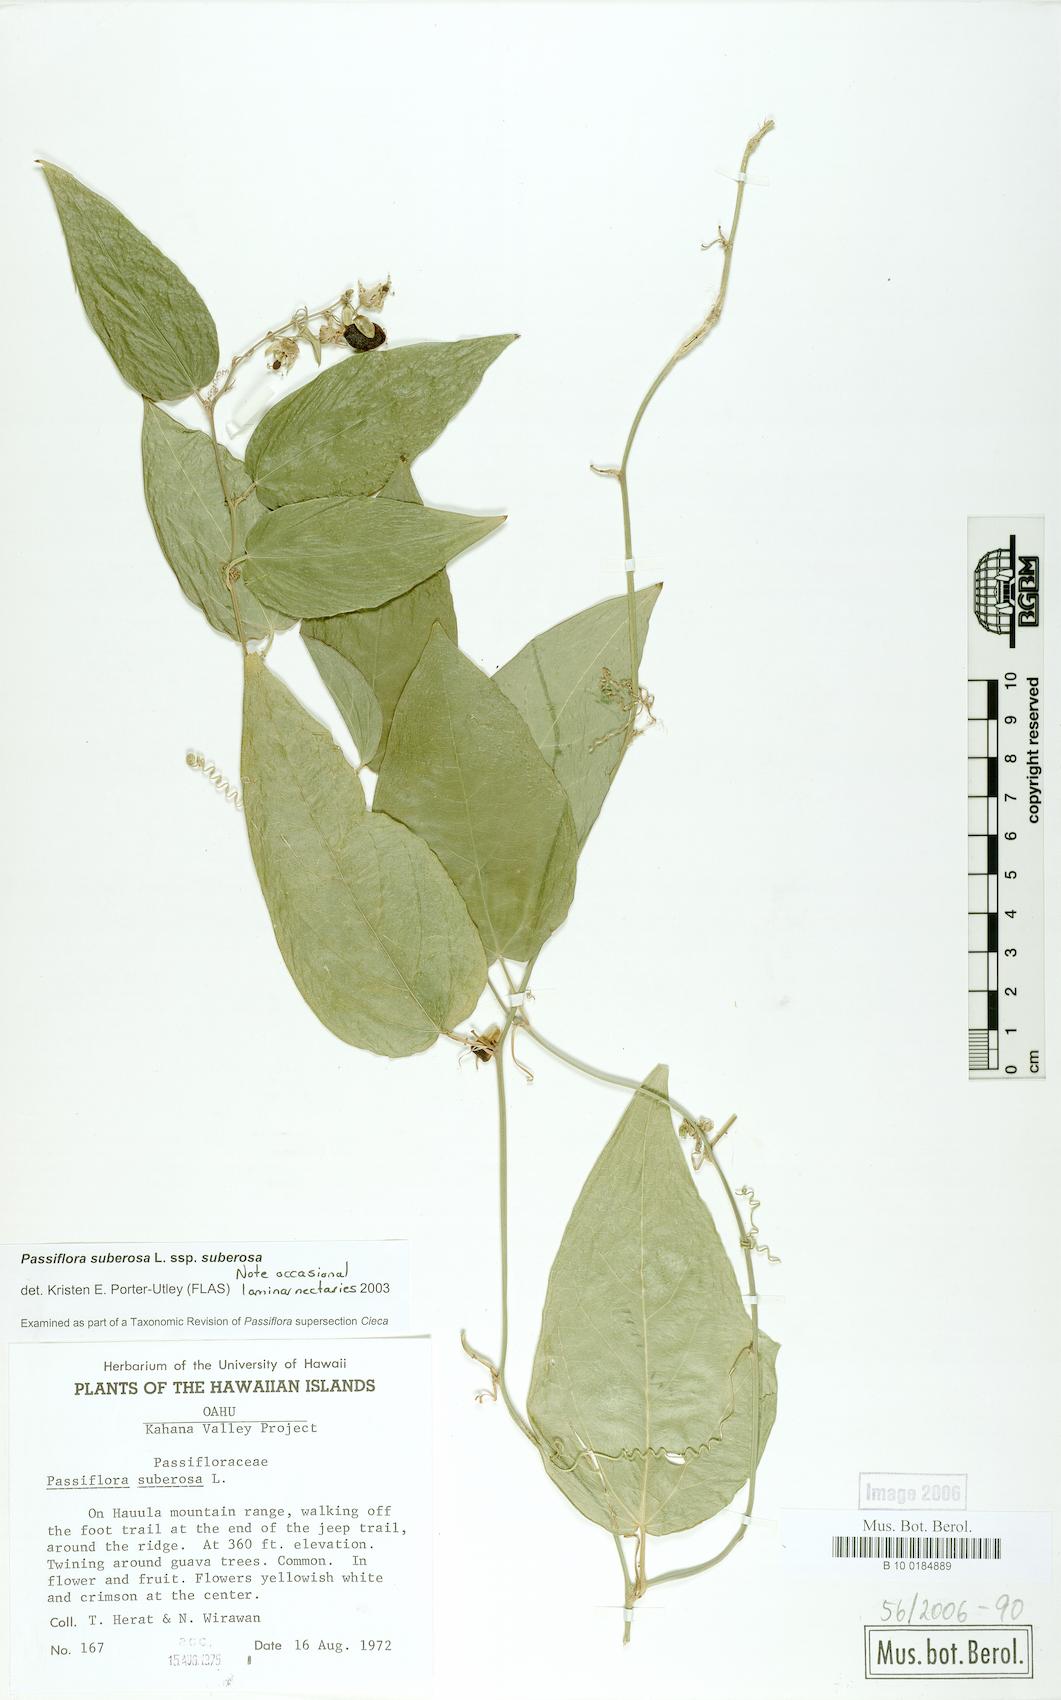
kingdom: Plantae
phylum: Tracheophyta
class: Magnoliopsida
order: Malpighiales
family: Passifloraceae
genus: Passiflora
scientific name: Passiflora suberosa
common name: Wild passionfruit
